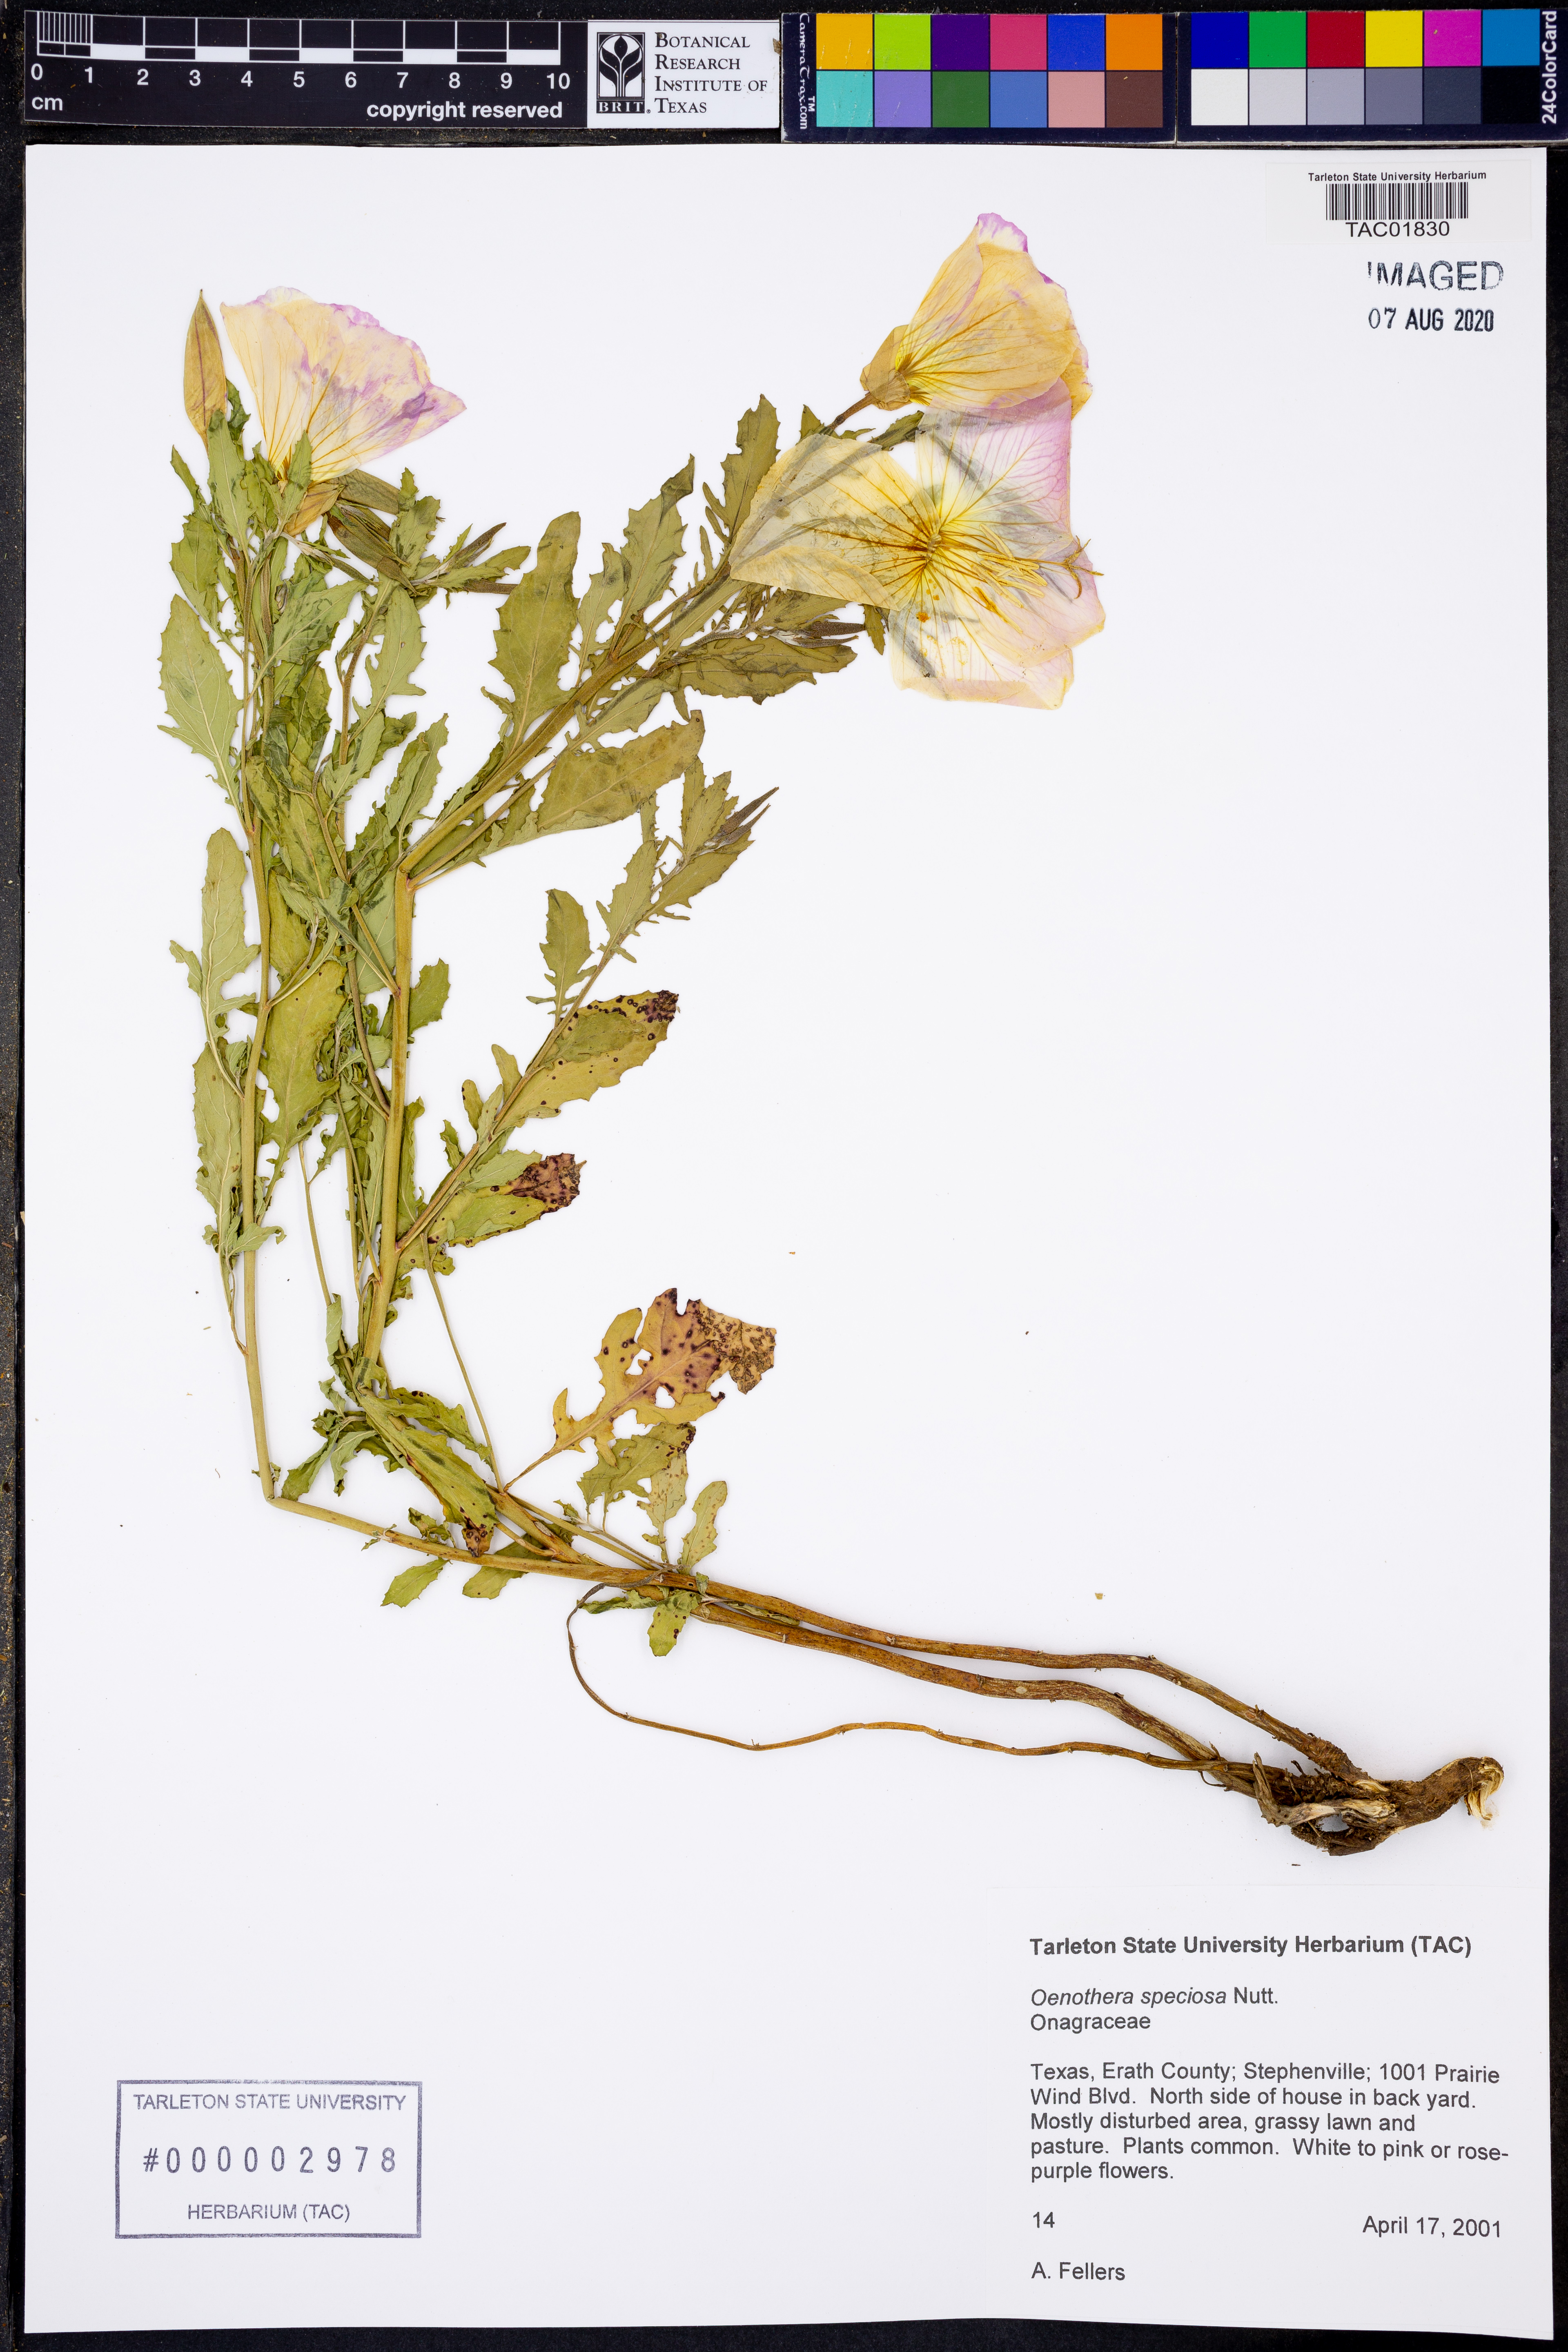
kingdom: Plantae
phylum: Tracheophyta
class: Magnoliopsida
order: Myrtales
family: Onagraceae
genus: Oenothera
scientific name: Oenothera speciosa
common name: White evening-primrose
